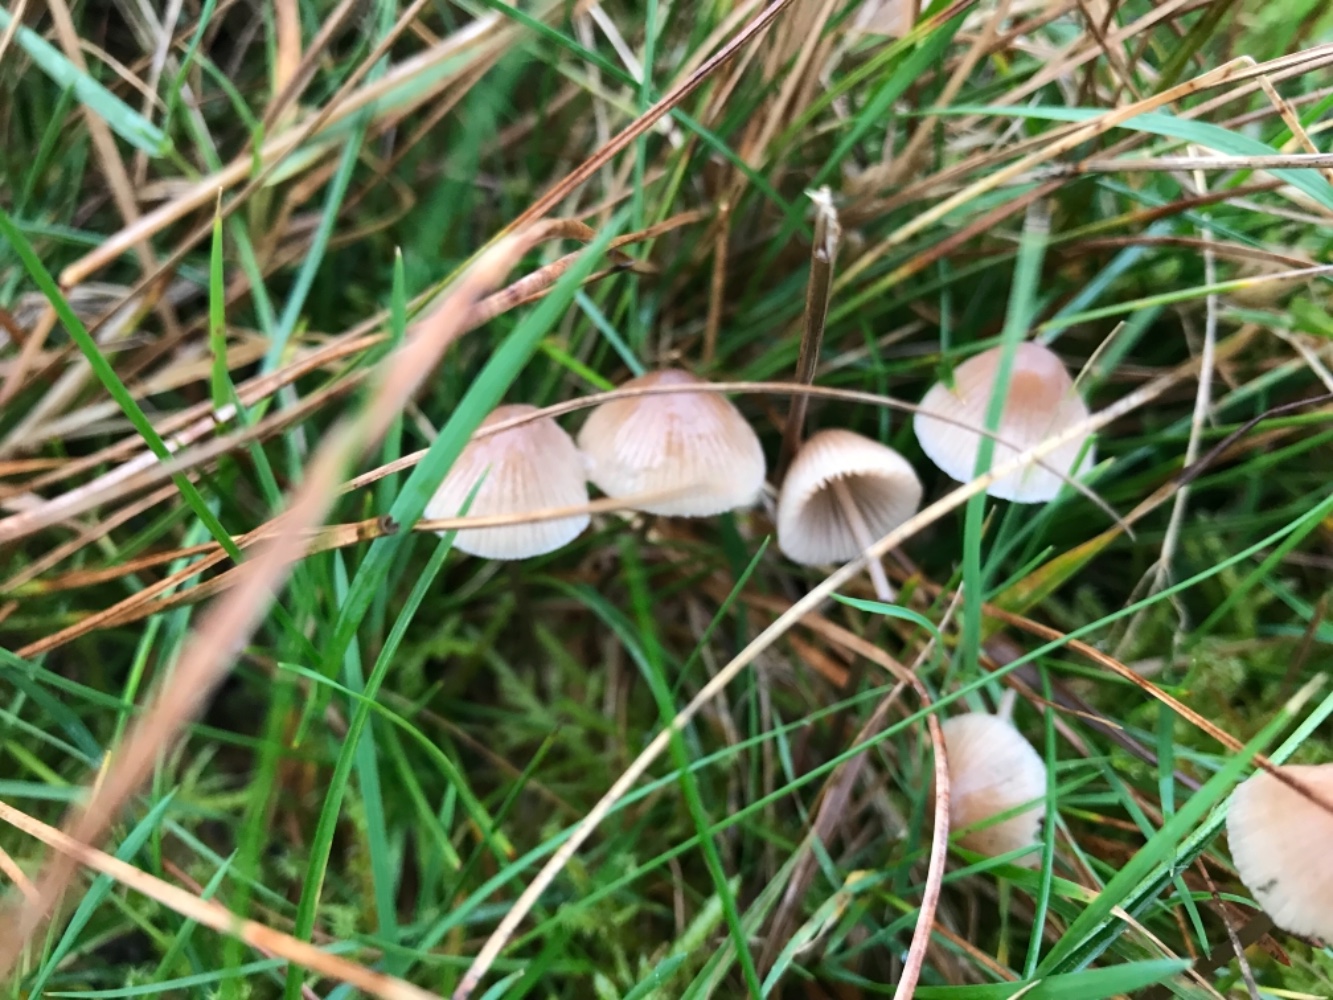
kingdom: Fungi
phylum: Basidiomycota
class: Agaricomycetes
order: Agaricales
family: Mycenaceae
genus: Mycena
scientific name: Mycena metata
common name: rødlig huesvamp
